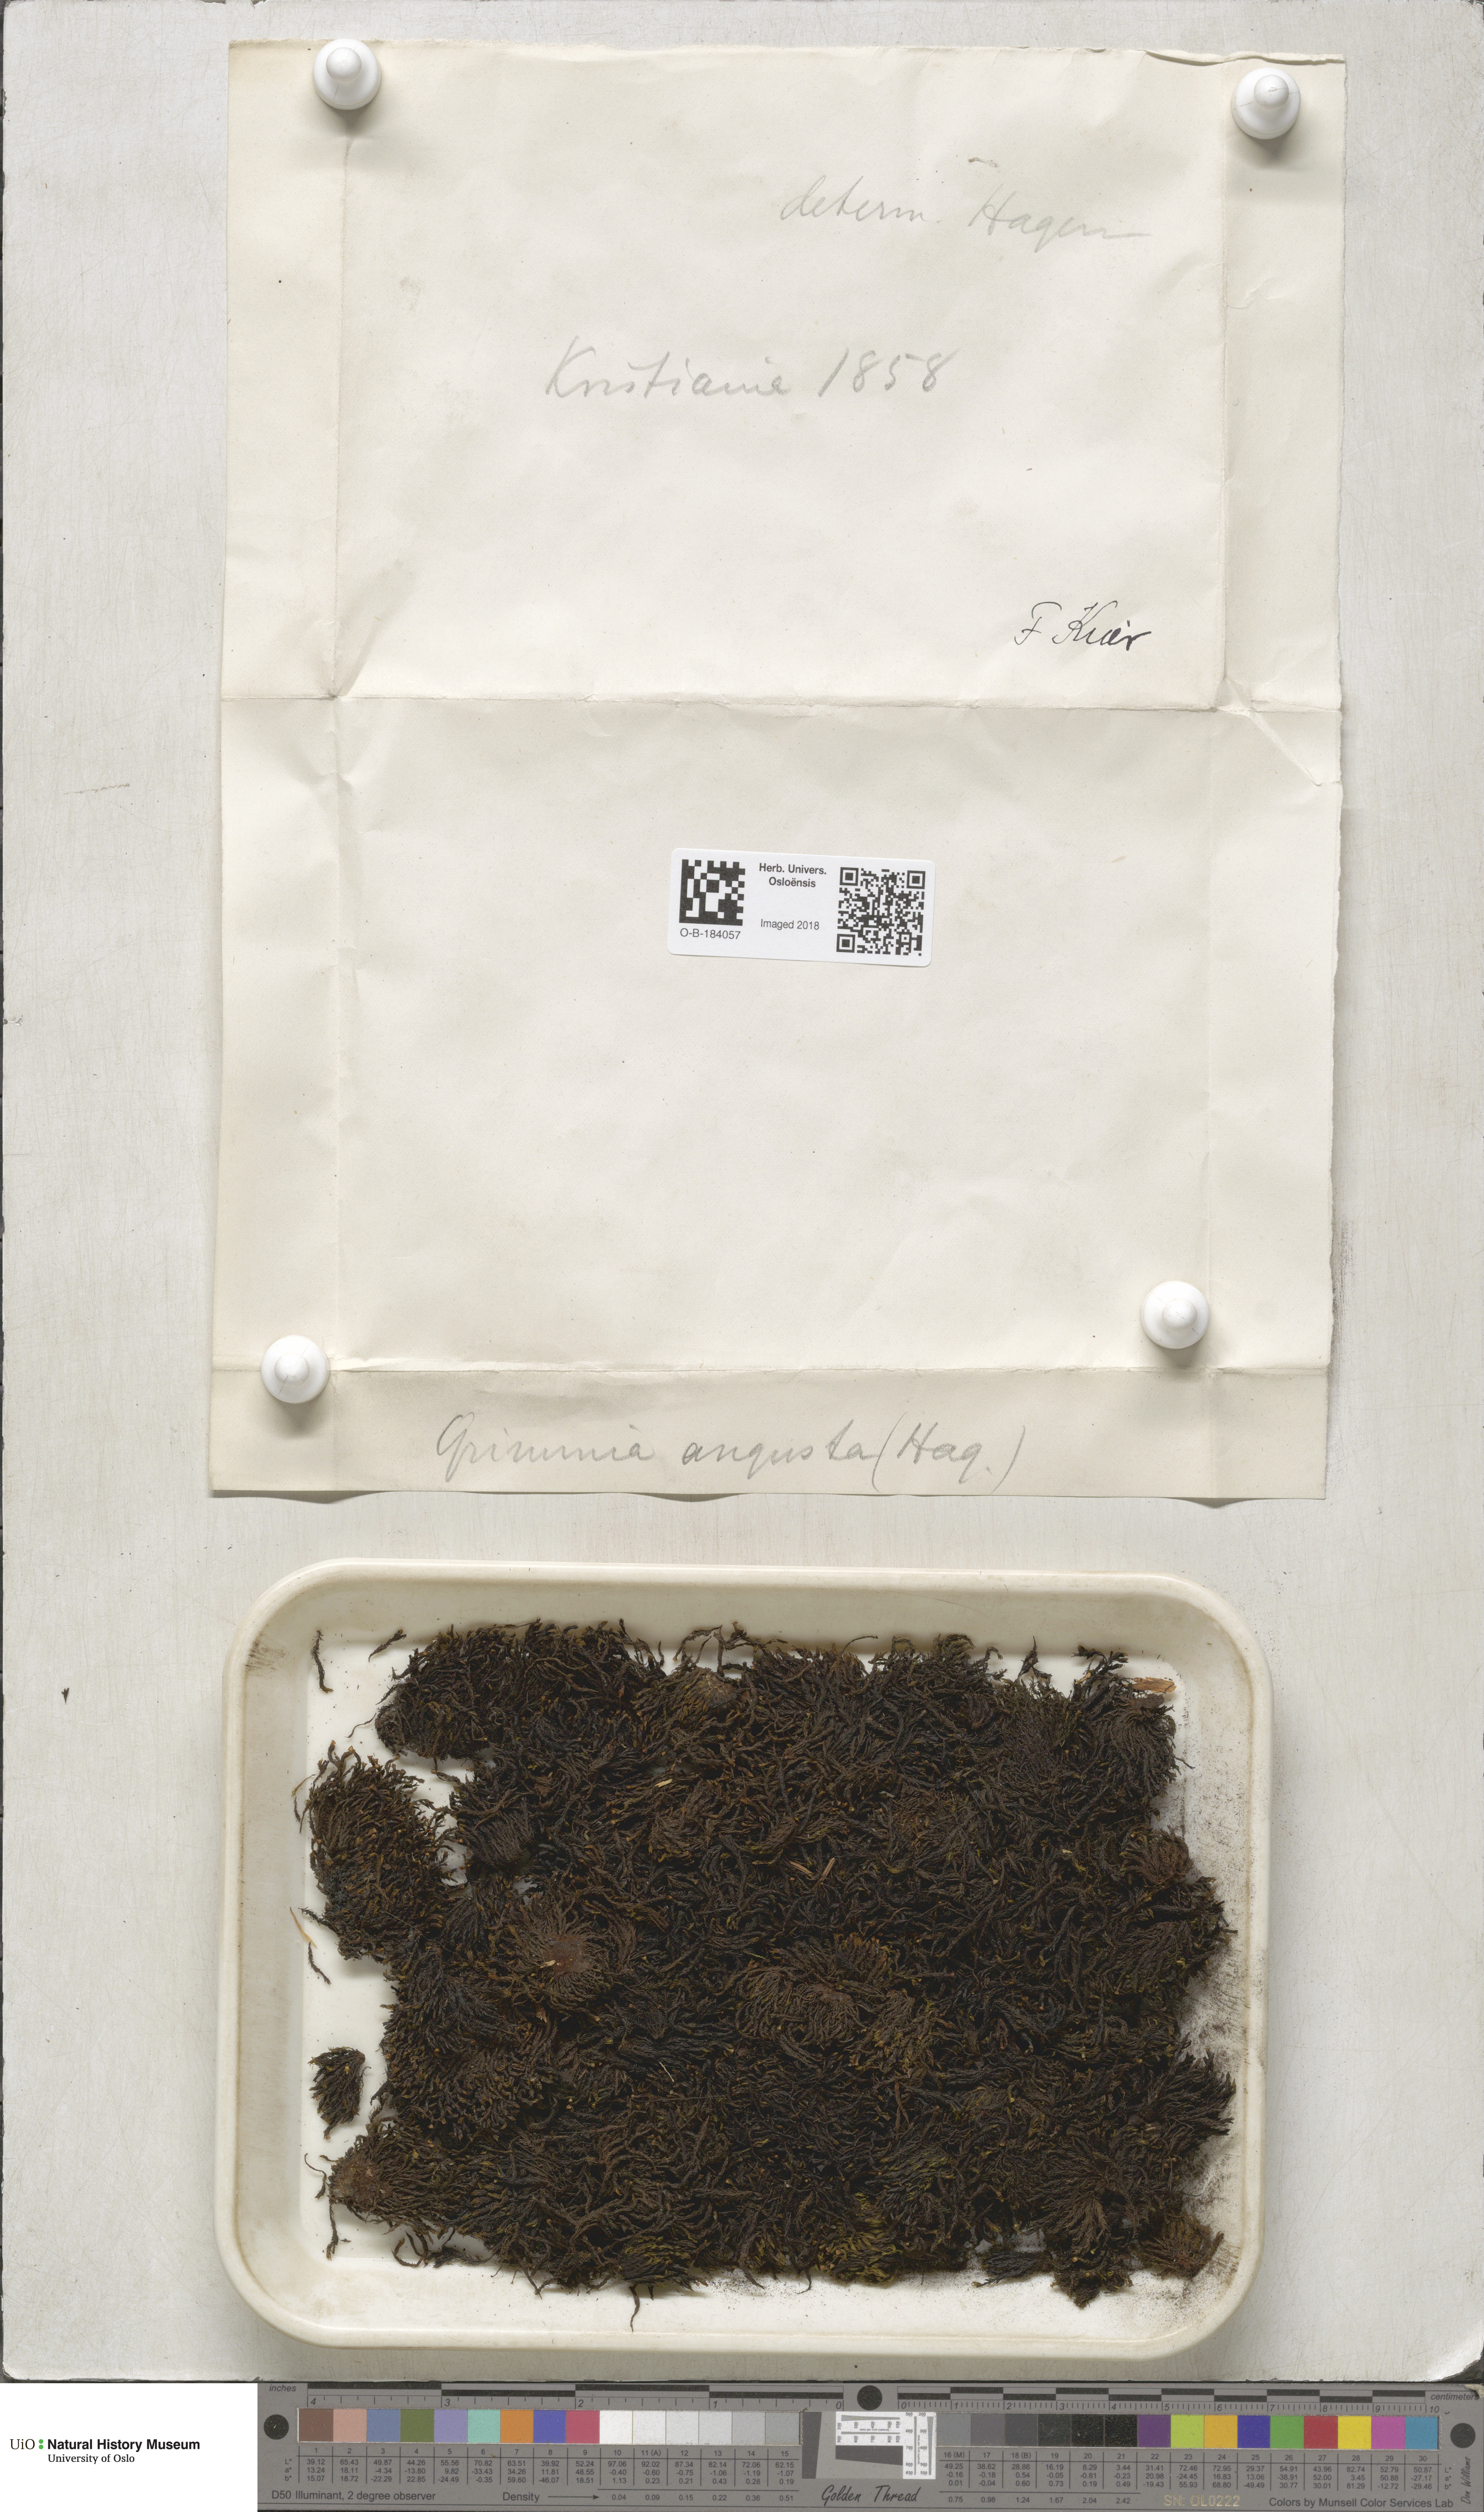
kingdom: Plantae
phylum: Bryophyta
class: Bryopsida
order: Grimmiales
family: Grimmiaceae
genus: Schistidium
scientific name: Schistidium agassizii
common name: Agassiz's bloom moss
